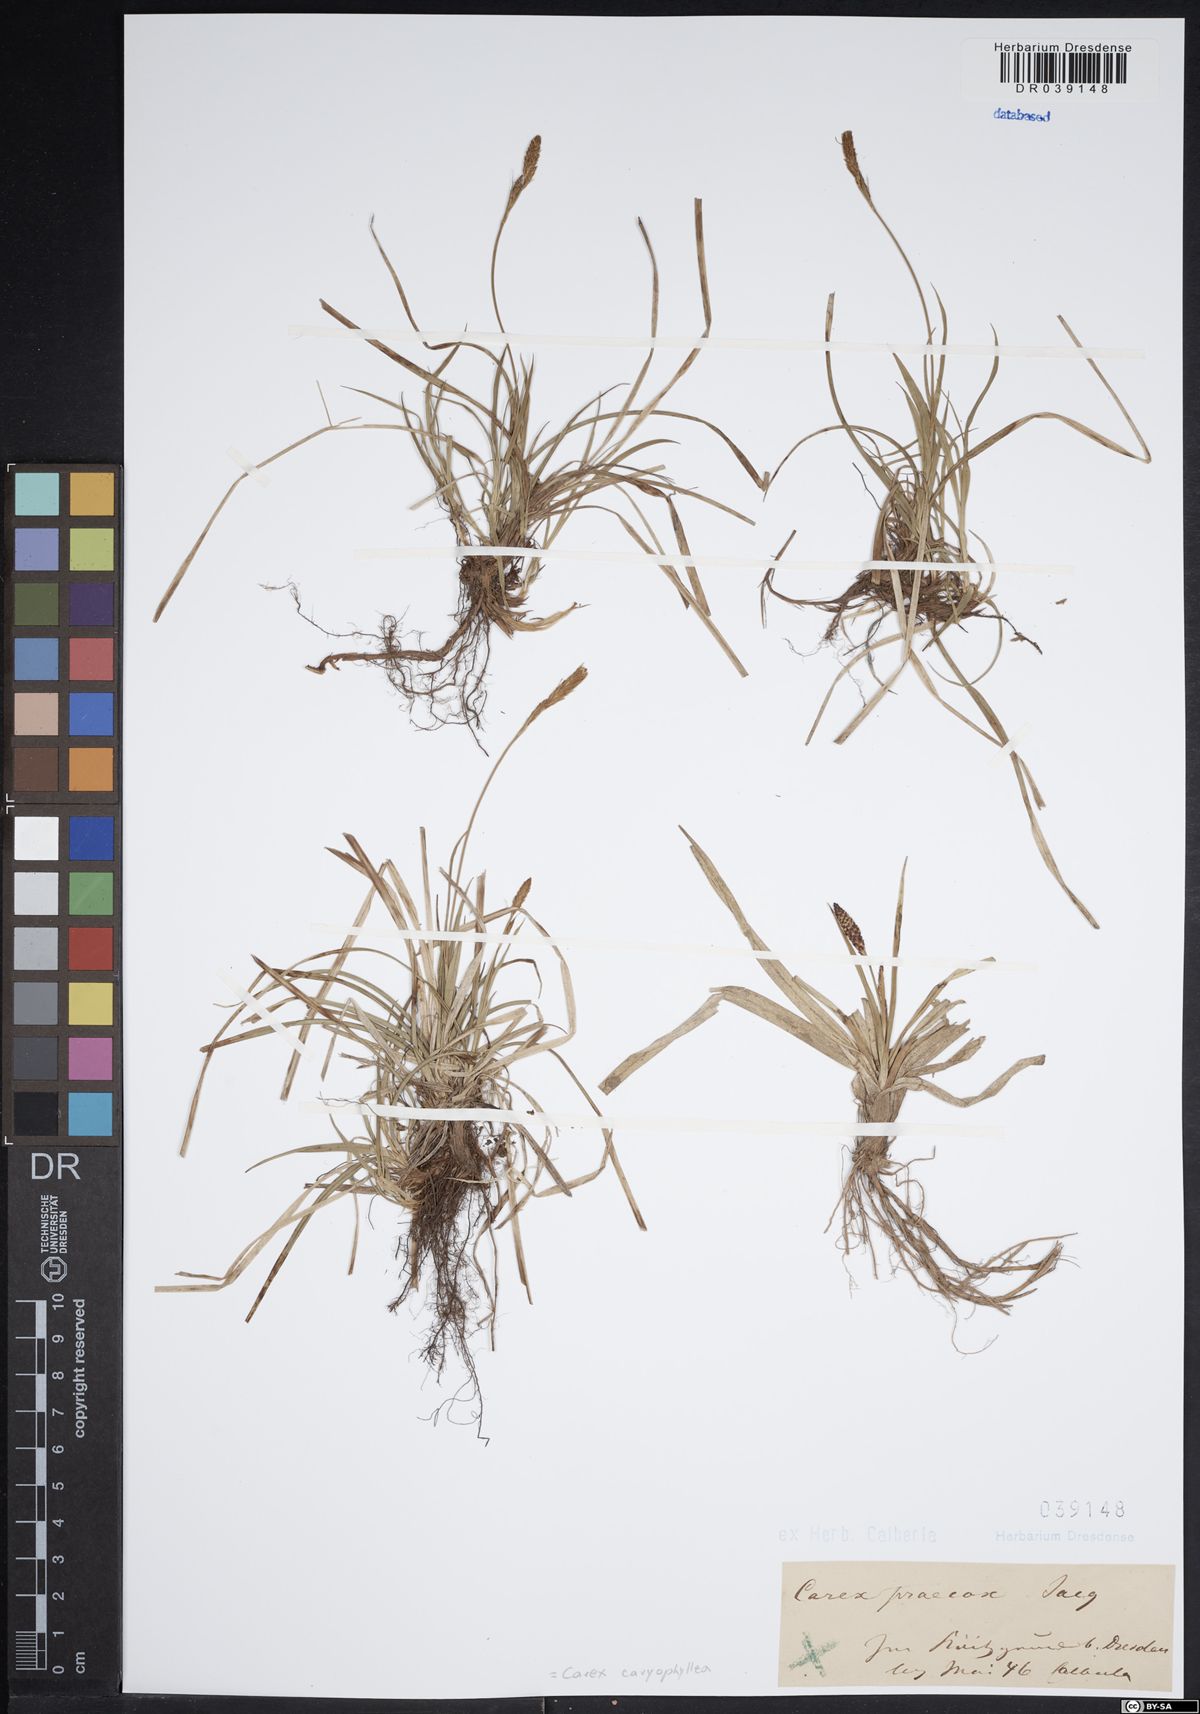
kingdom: Plantae
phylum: Tracheophyta
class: Liliopsida
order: Poales
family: Cyperaceae
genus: Carex
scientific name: Carex caryophyllea
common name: Spring sedge
